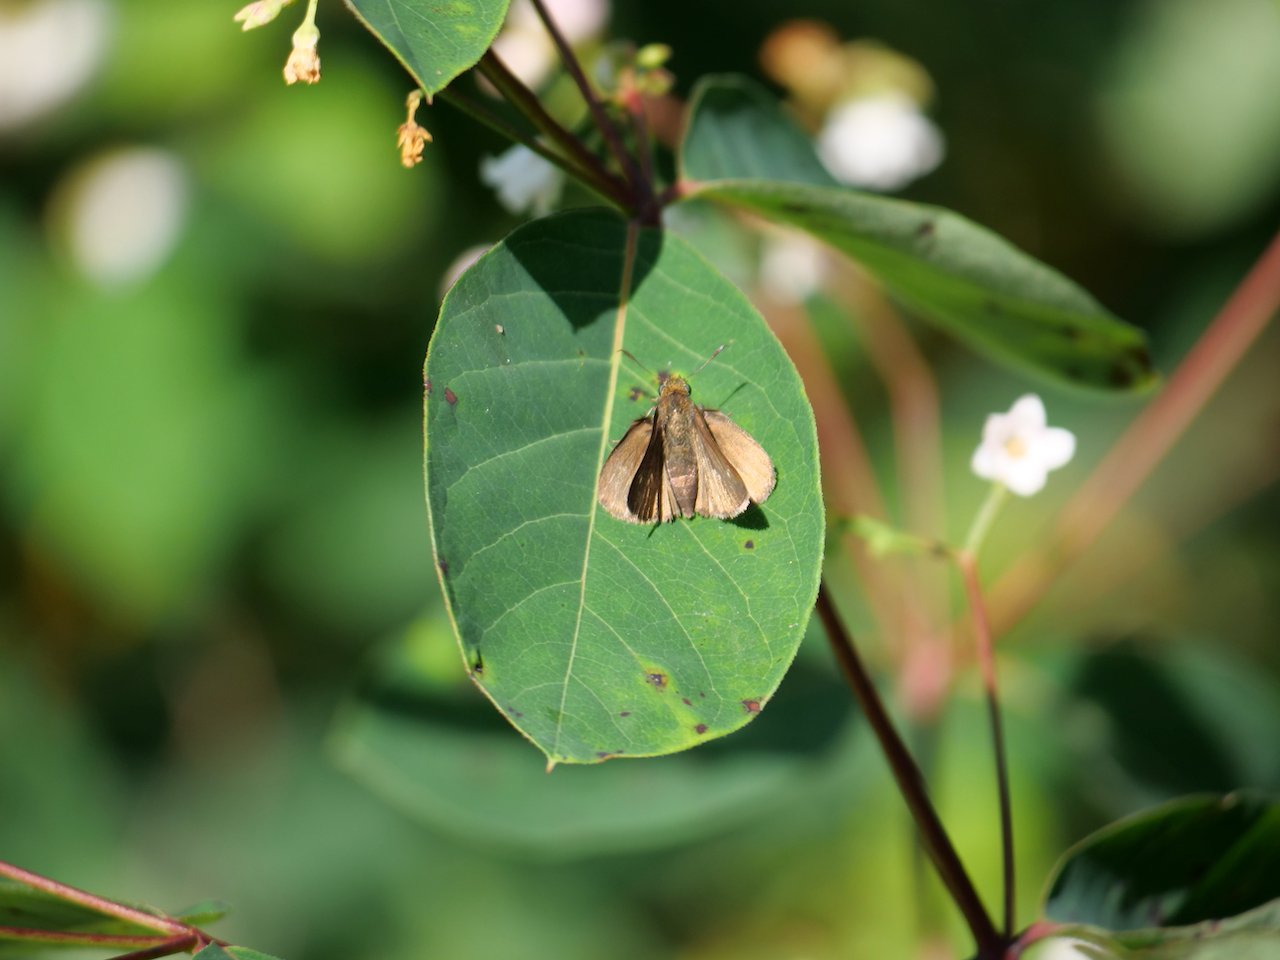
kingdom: Animalia
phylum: Arthropoda
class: Insecta
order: Lepidoptera
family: Hesperiidae
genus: Euphyes
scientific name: Euphyes vestris
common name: Dun Skipper
